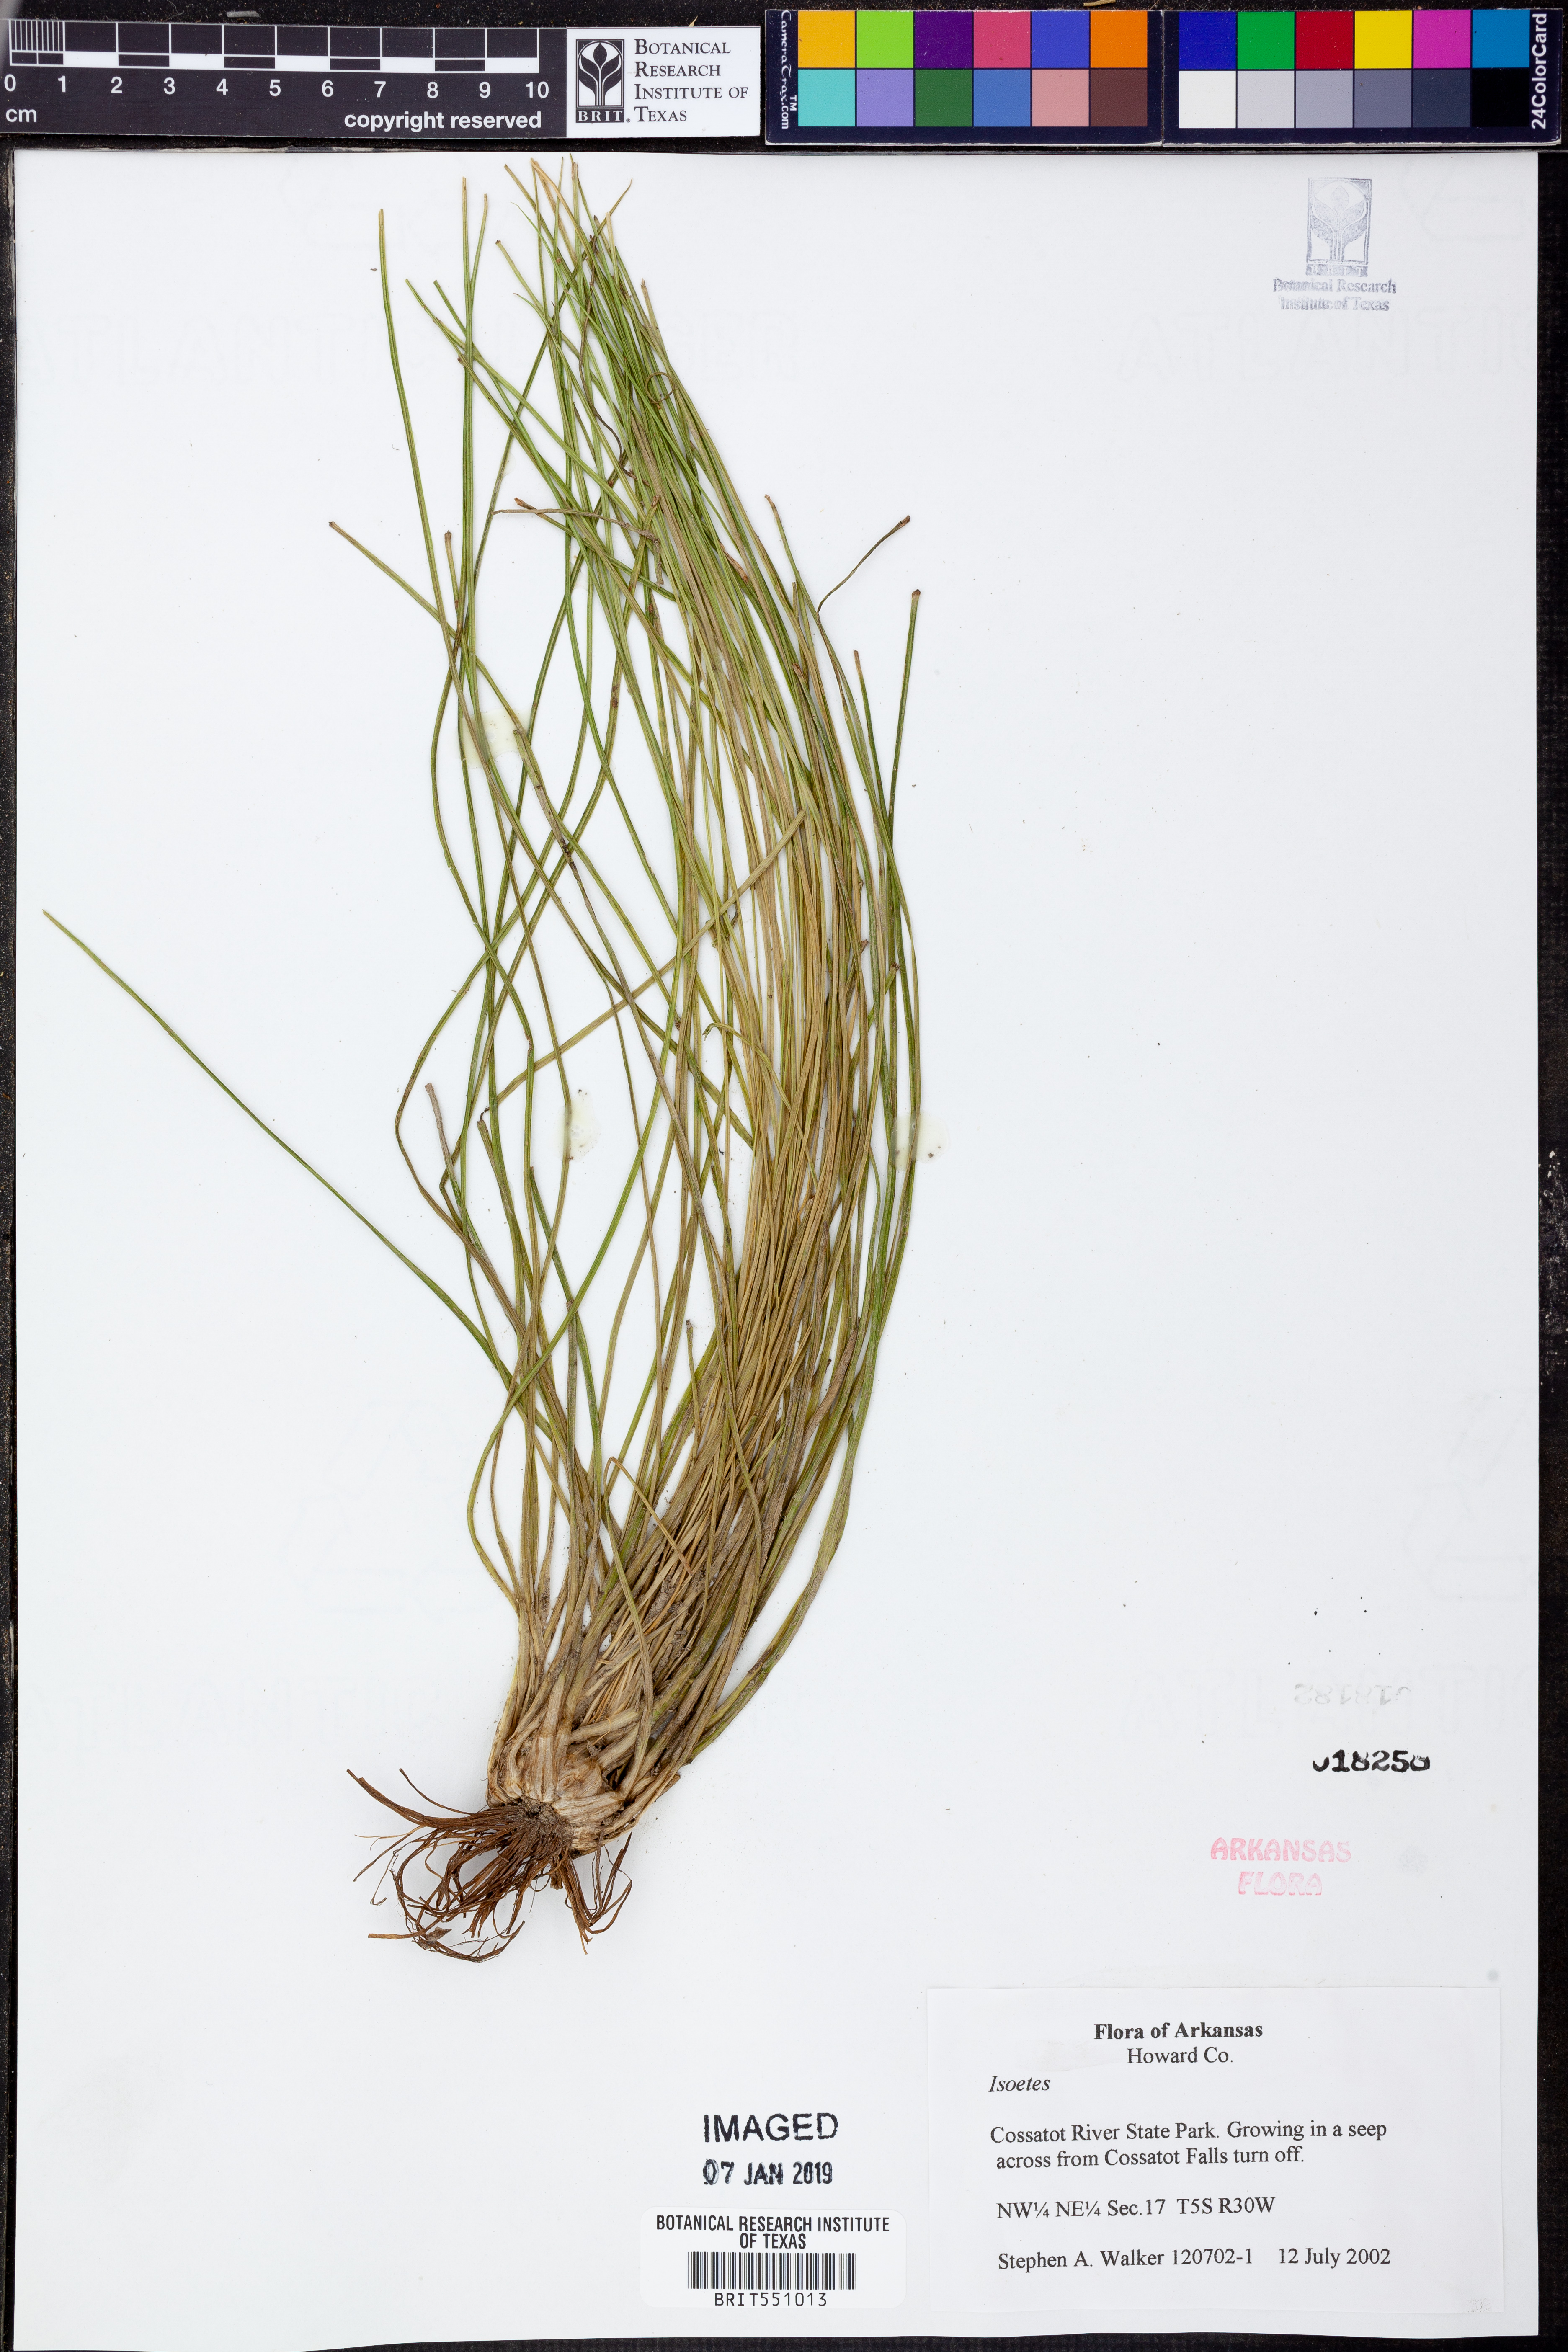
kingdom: Plantae
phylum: Tracheophyta
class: Lycopodiopsida
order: Isoetales
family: Isoetaceae
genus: Isoetes
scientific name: Isoetes
